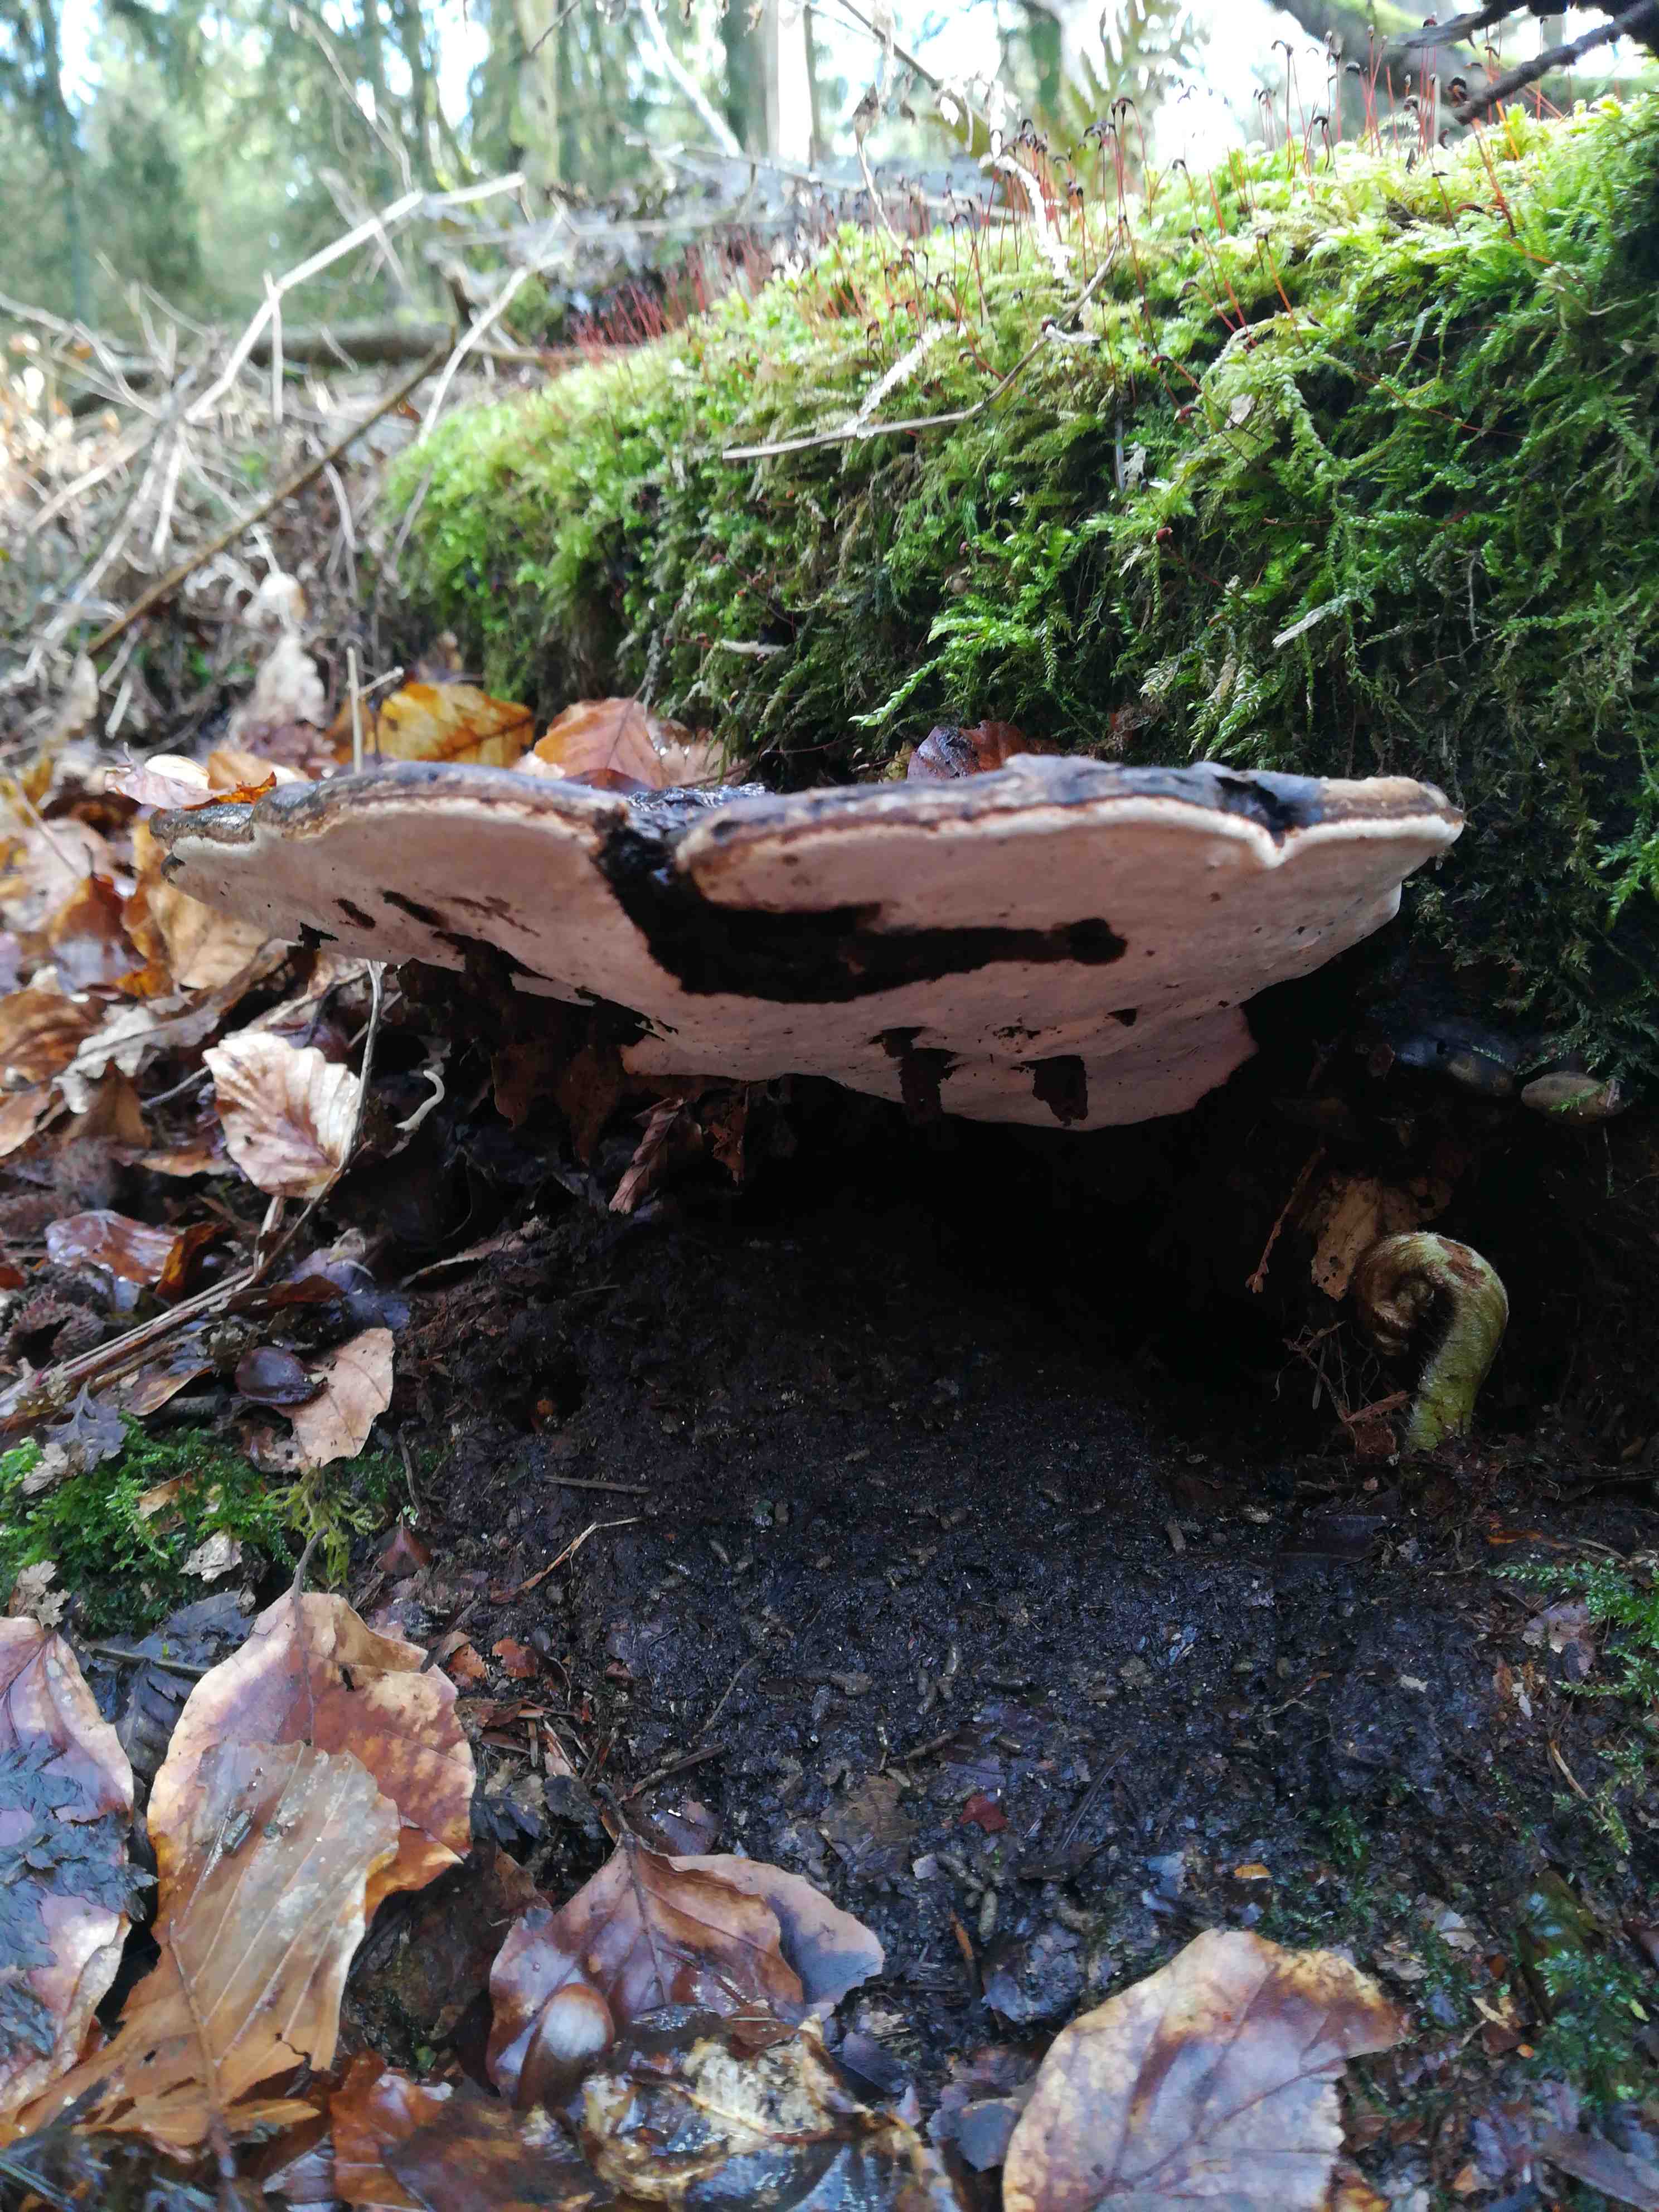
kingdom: Fungi
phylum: Basidiomycota
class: Agaricomycetes
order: Polyporales
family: Polyporaceae
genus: Ganoderma
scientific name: Ganoderma applanatum
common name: flad lakporesvamp
